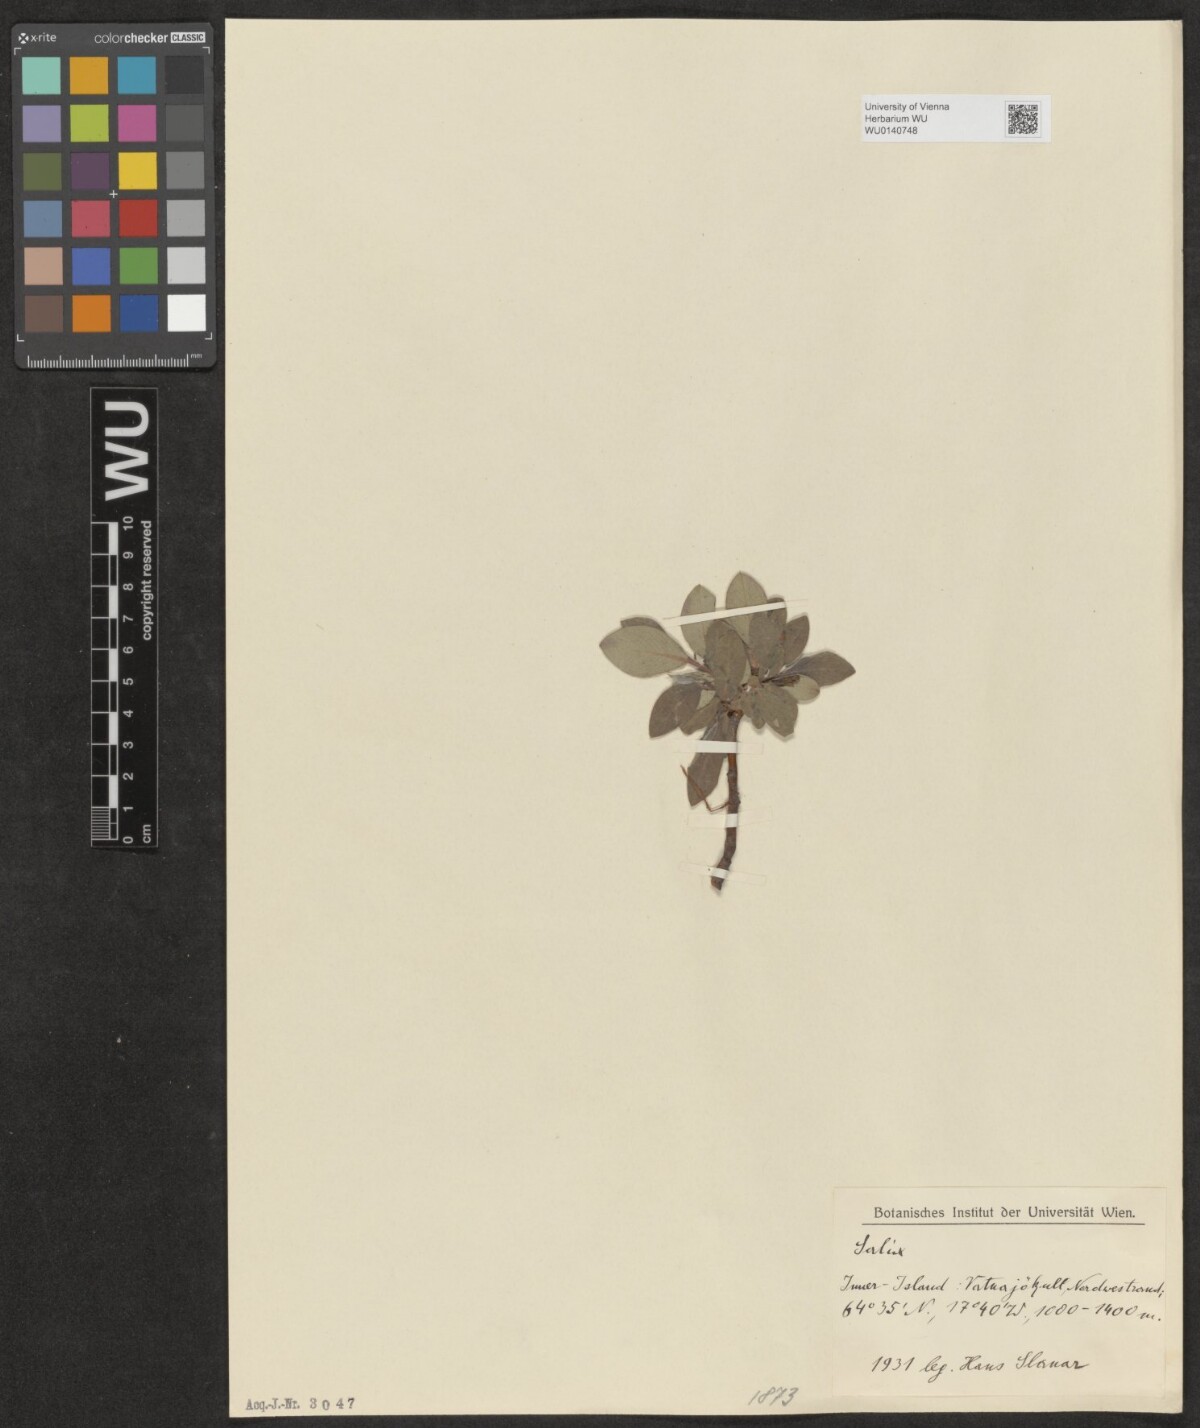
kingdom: Plantae
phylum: Tracheophyta
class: Magnoliopsida
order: Malpighiales
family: Salicaceae
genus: Salix
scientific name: Salix
